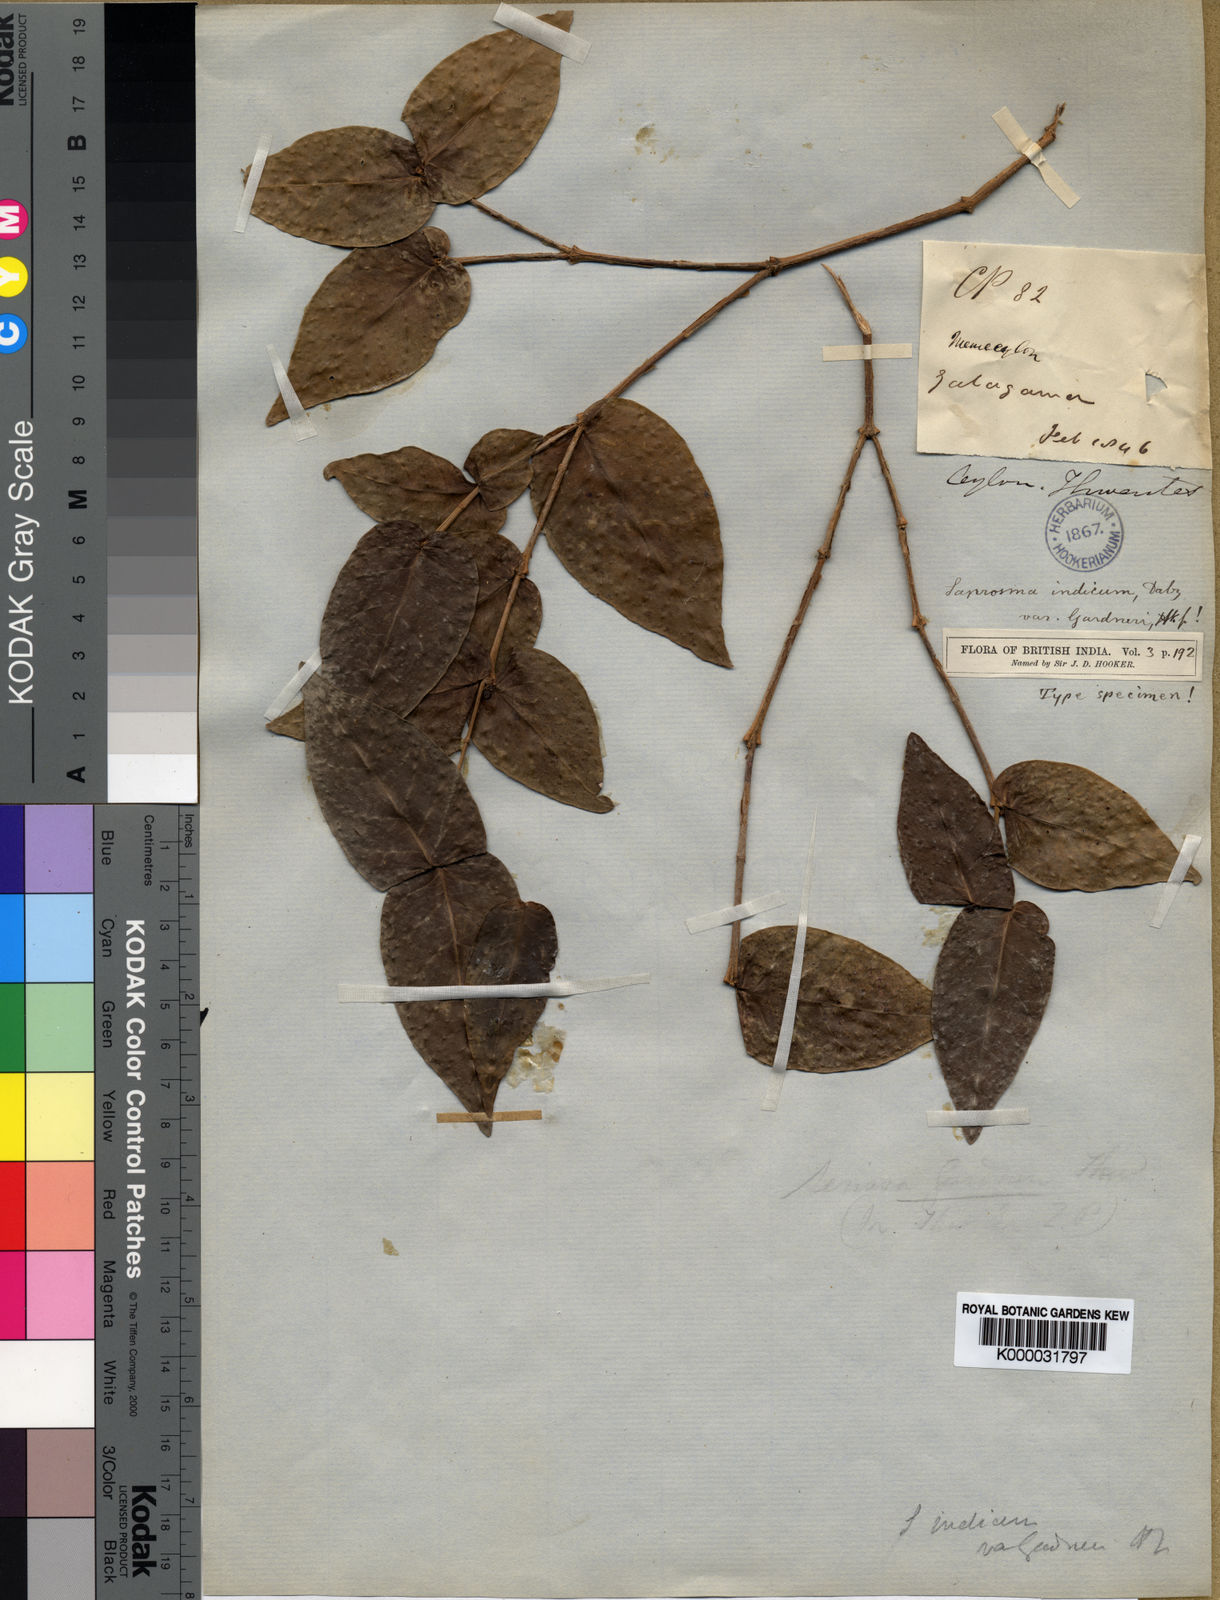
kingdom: Plantae
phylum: Tracheophyta
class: Magnoliopsida
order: Gentianales
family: Rubiaceae
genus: Saprosma
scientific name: Saprosma glomerata
